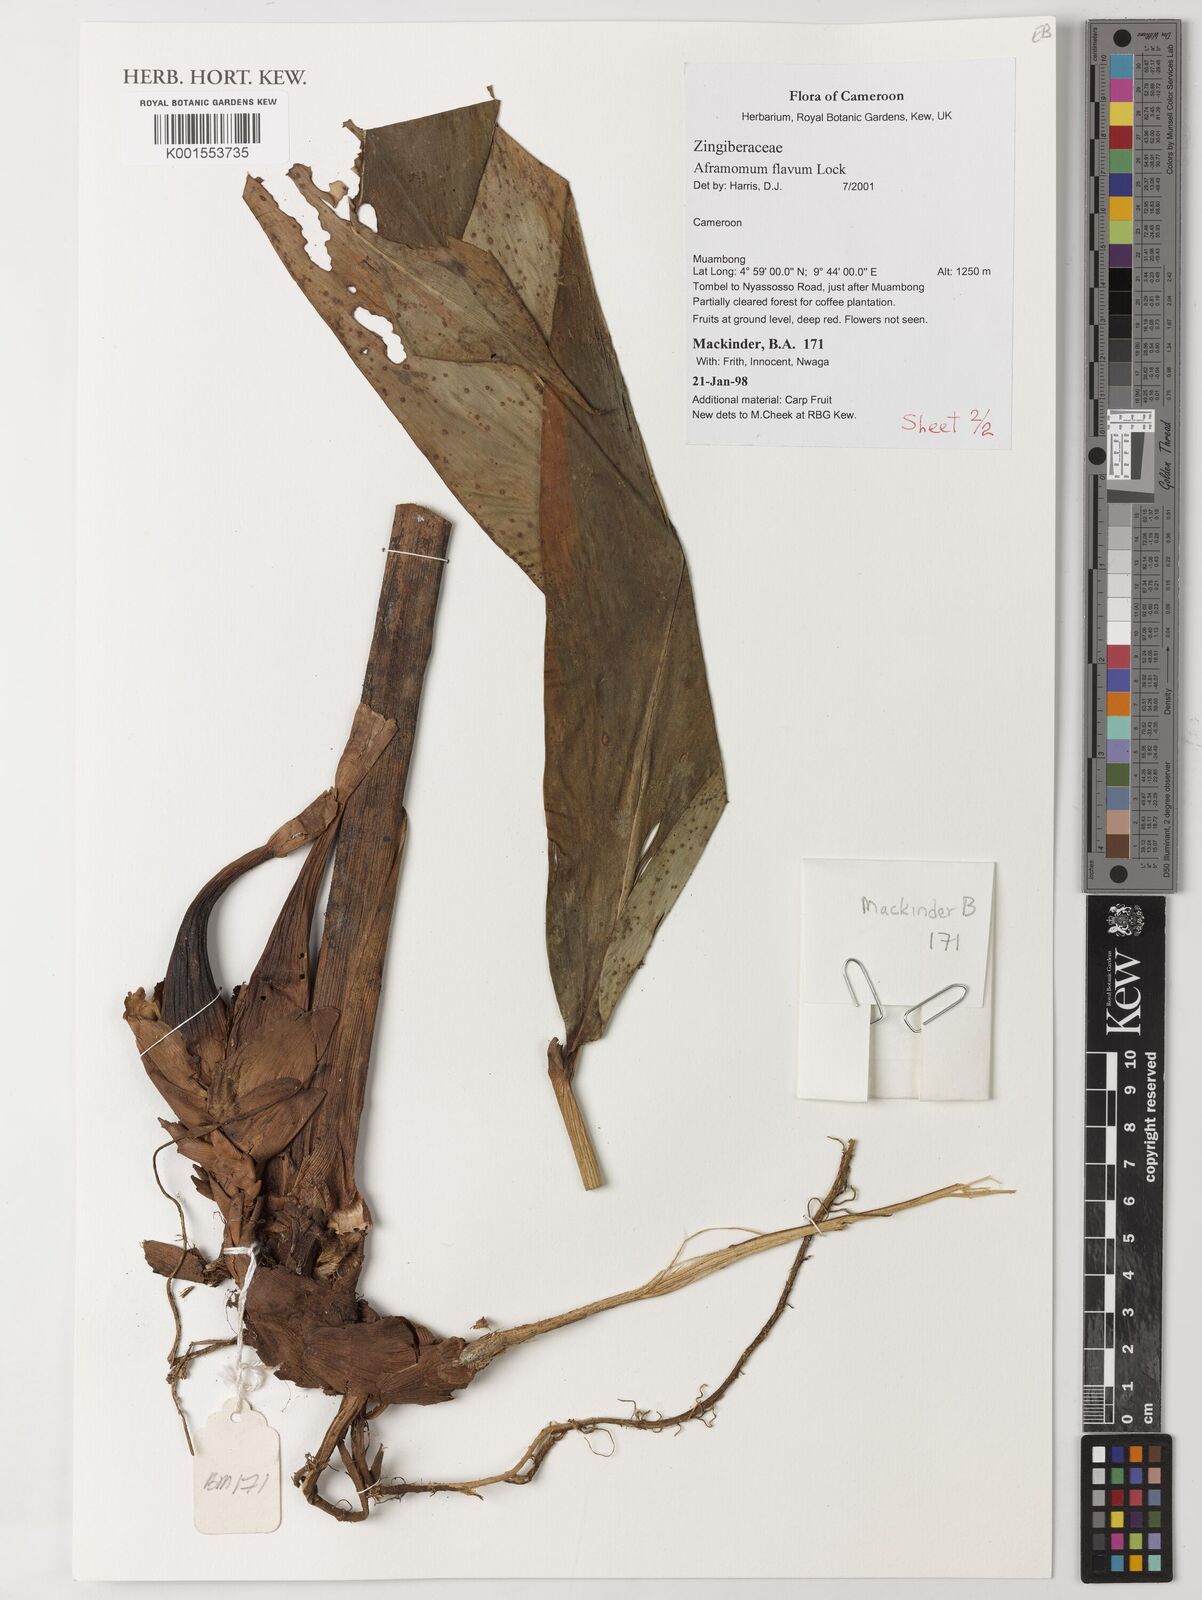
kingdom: Plantae
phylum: Tracheophyta
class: Liliopsida
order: Zingiberales
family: Zingiberaceae
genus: Aframomum
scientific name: Aframomum daniellii
